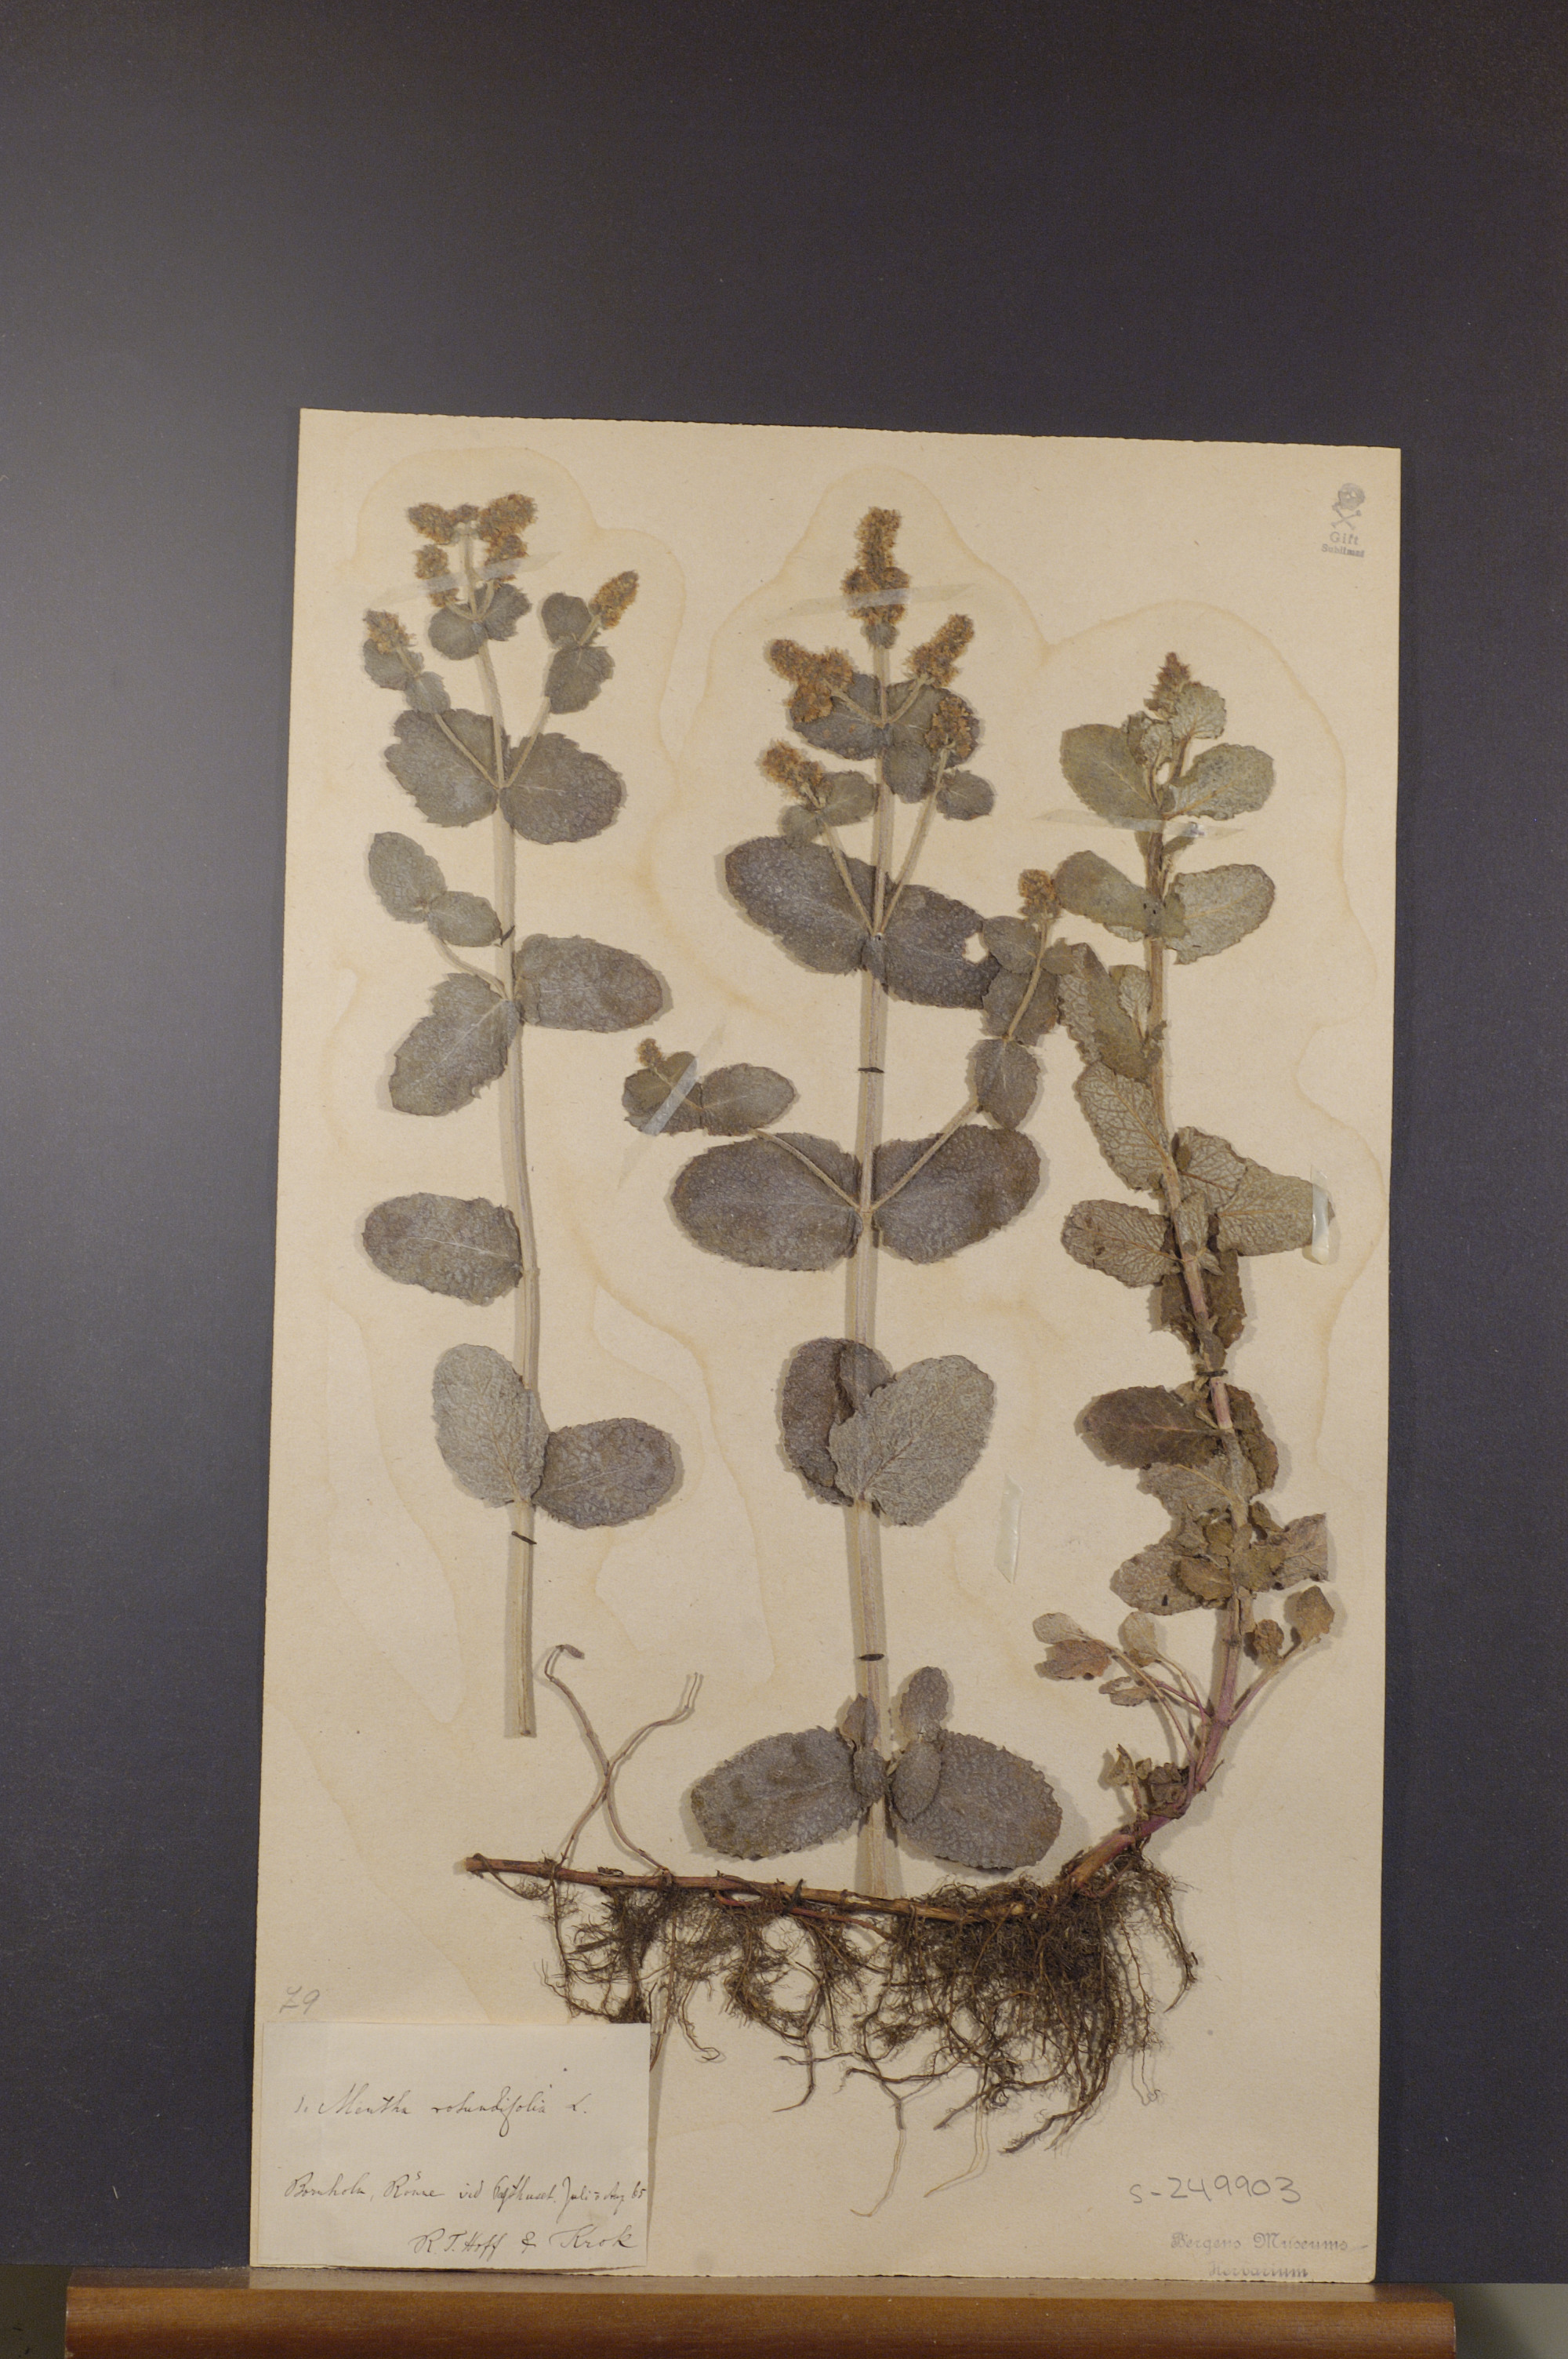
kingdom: Plantae
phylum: Tracheophyta
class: Magnoliopsida
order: Lamiales
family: Lamiaceae
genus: Mentha
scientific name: Mentha rotundifolia
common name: Bigleaf mint
